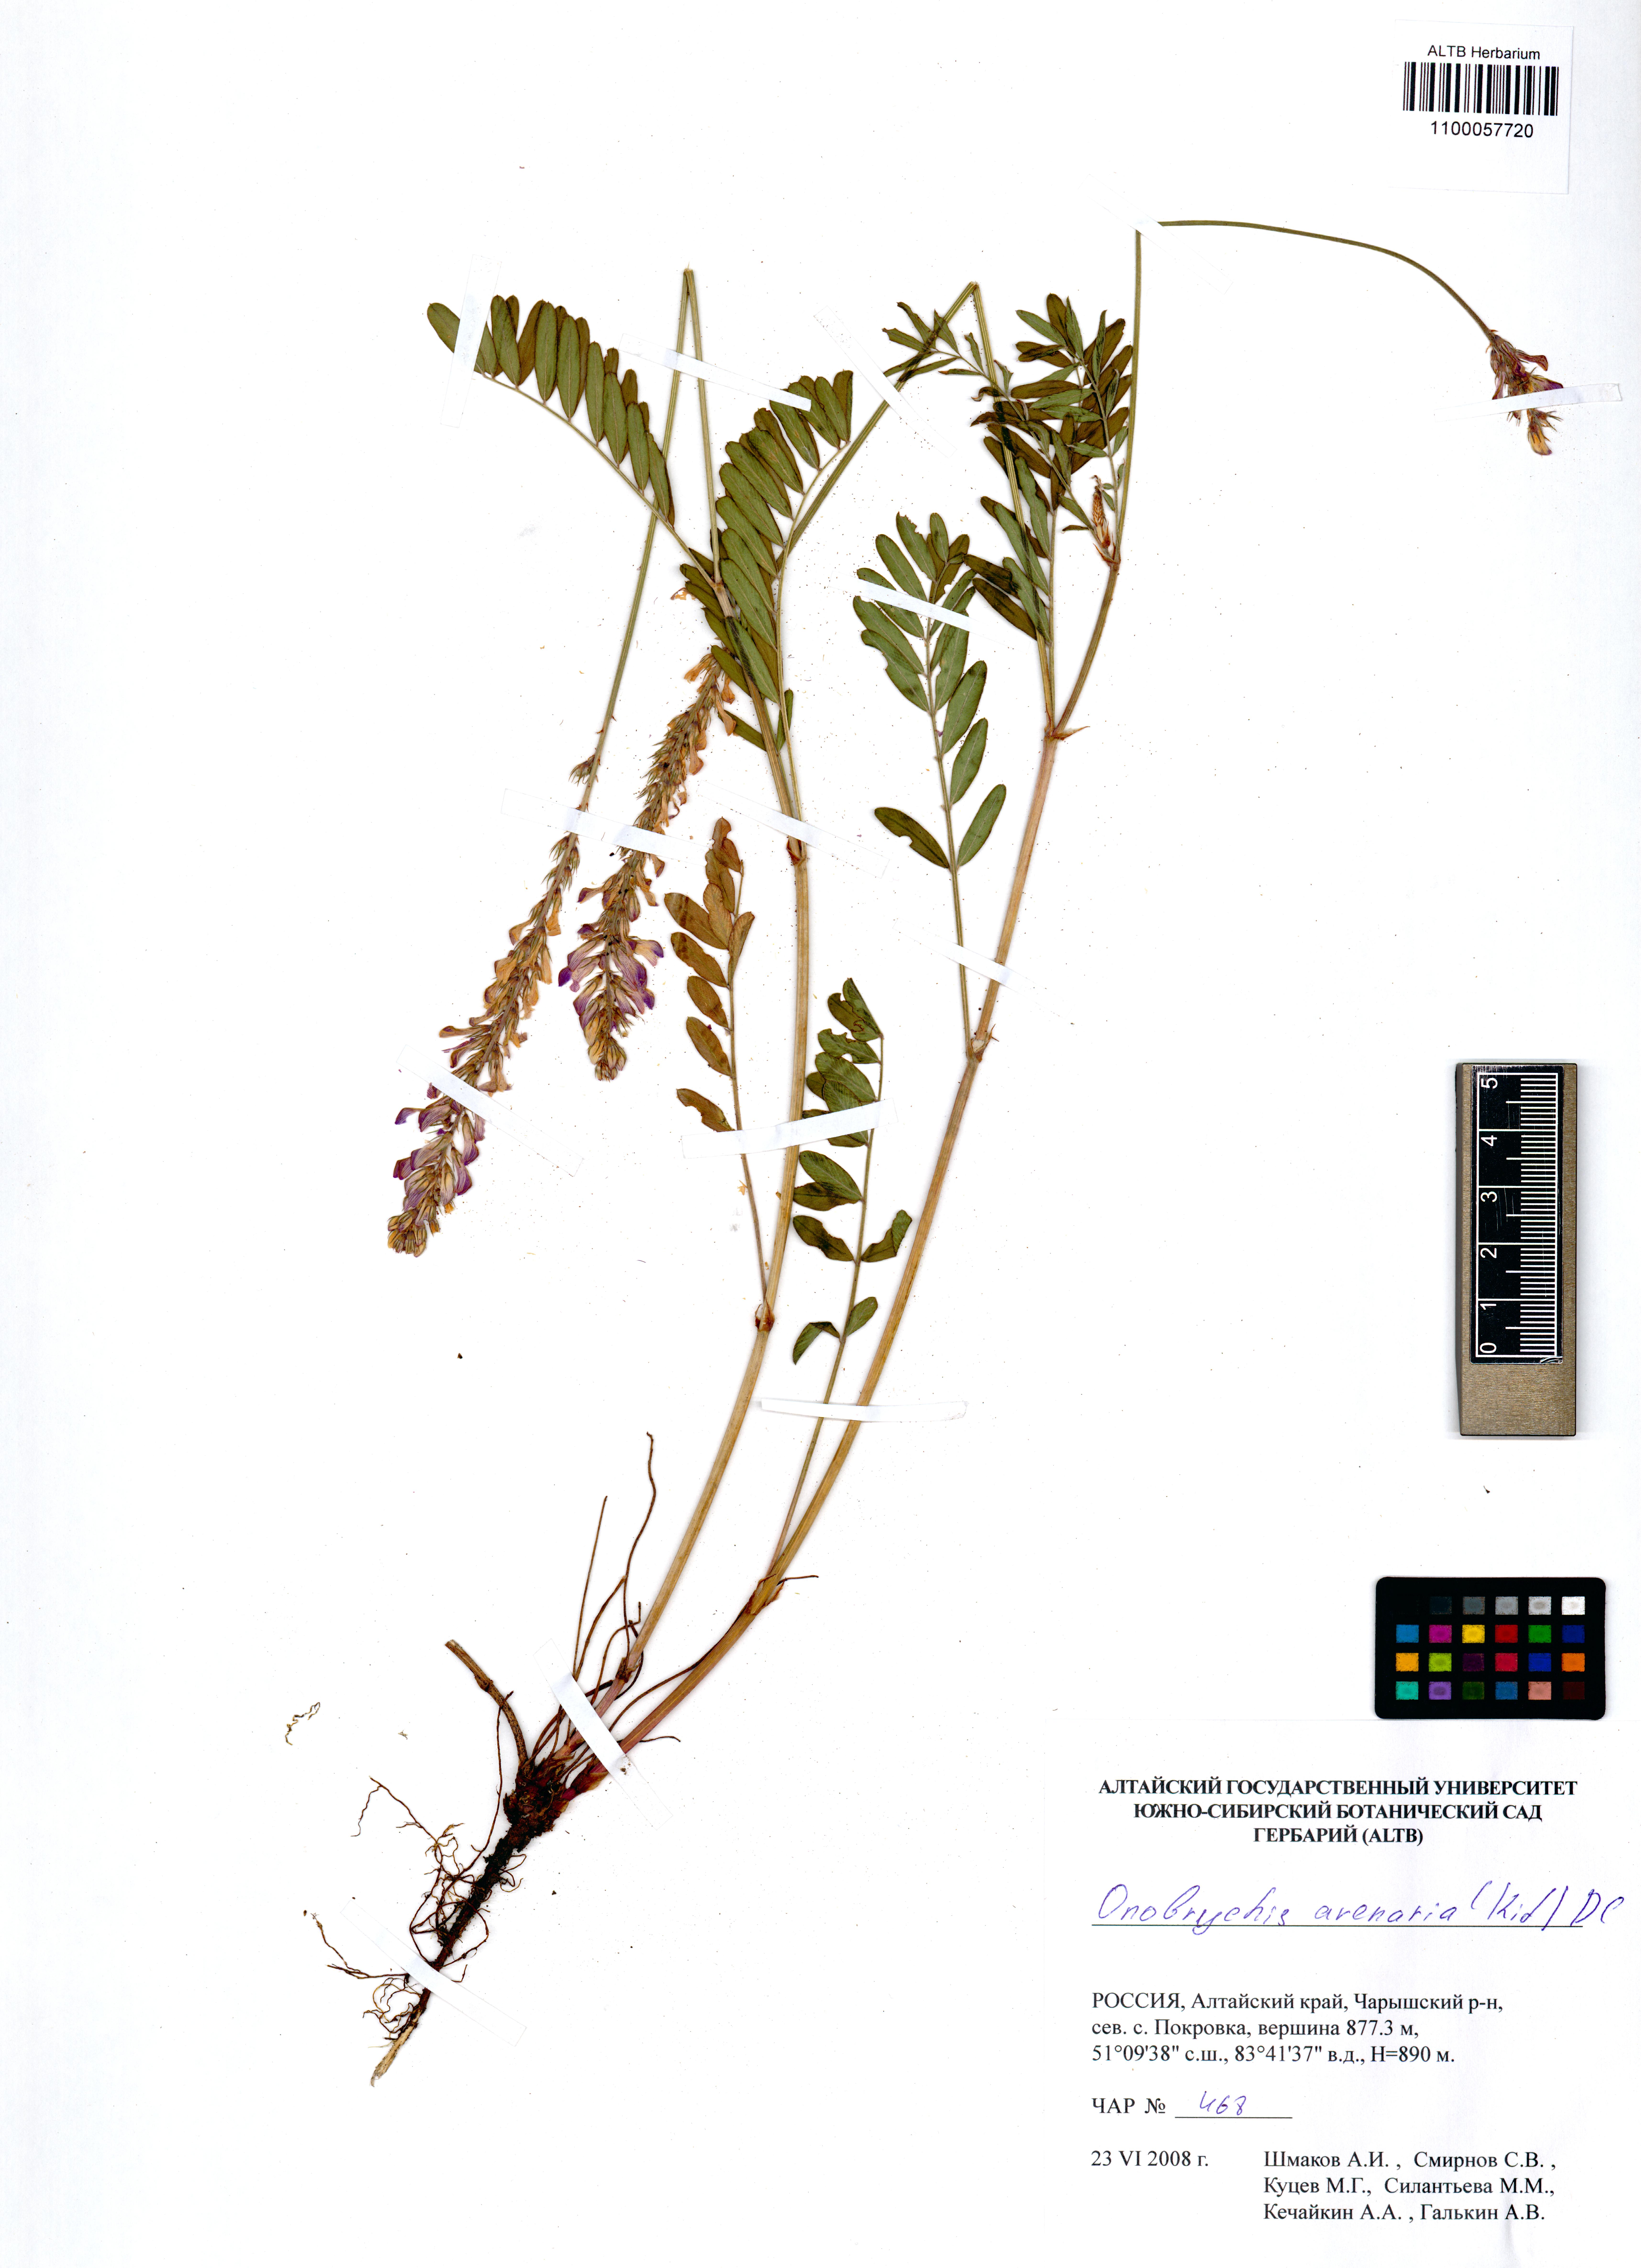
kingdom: Plantae
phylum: Tracheophyta
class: Magnoliopsida
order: Fabales
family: Fabaceae
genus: Onobrychis
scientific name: Onobrychis arenaria
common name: Sand esparcet
